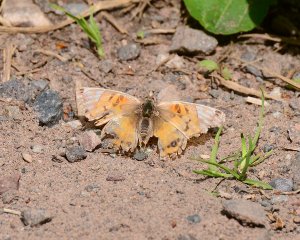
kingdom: Animalia
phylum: Arthropoda
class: Insecta
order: Lepidoptera
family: Nymphalidae
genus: Vanessa
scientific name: Vanessa virginiensis
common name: American Lady
